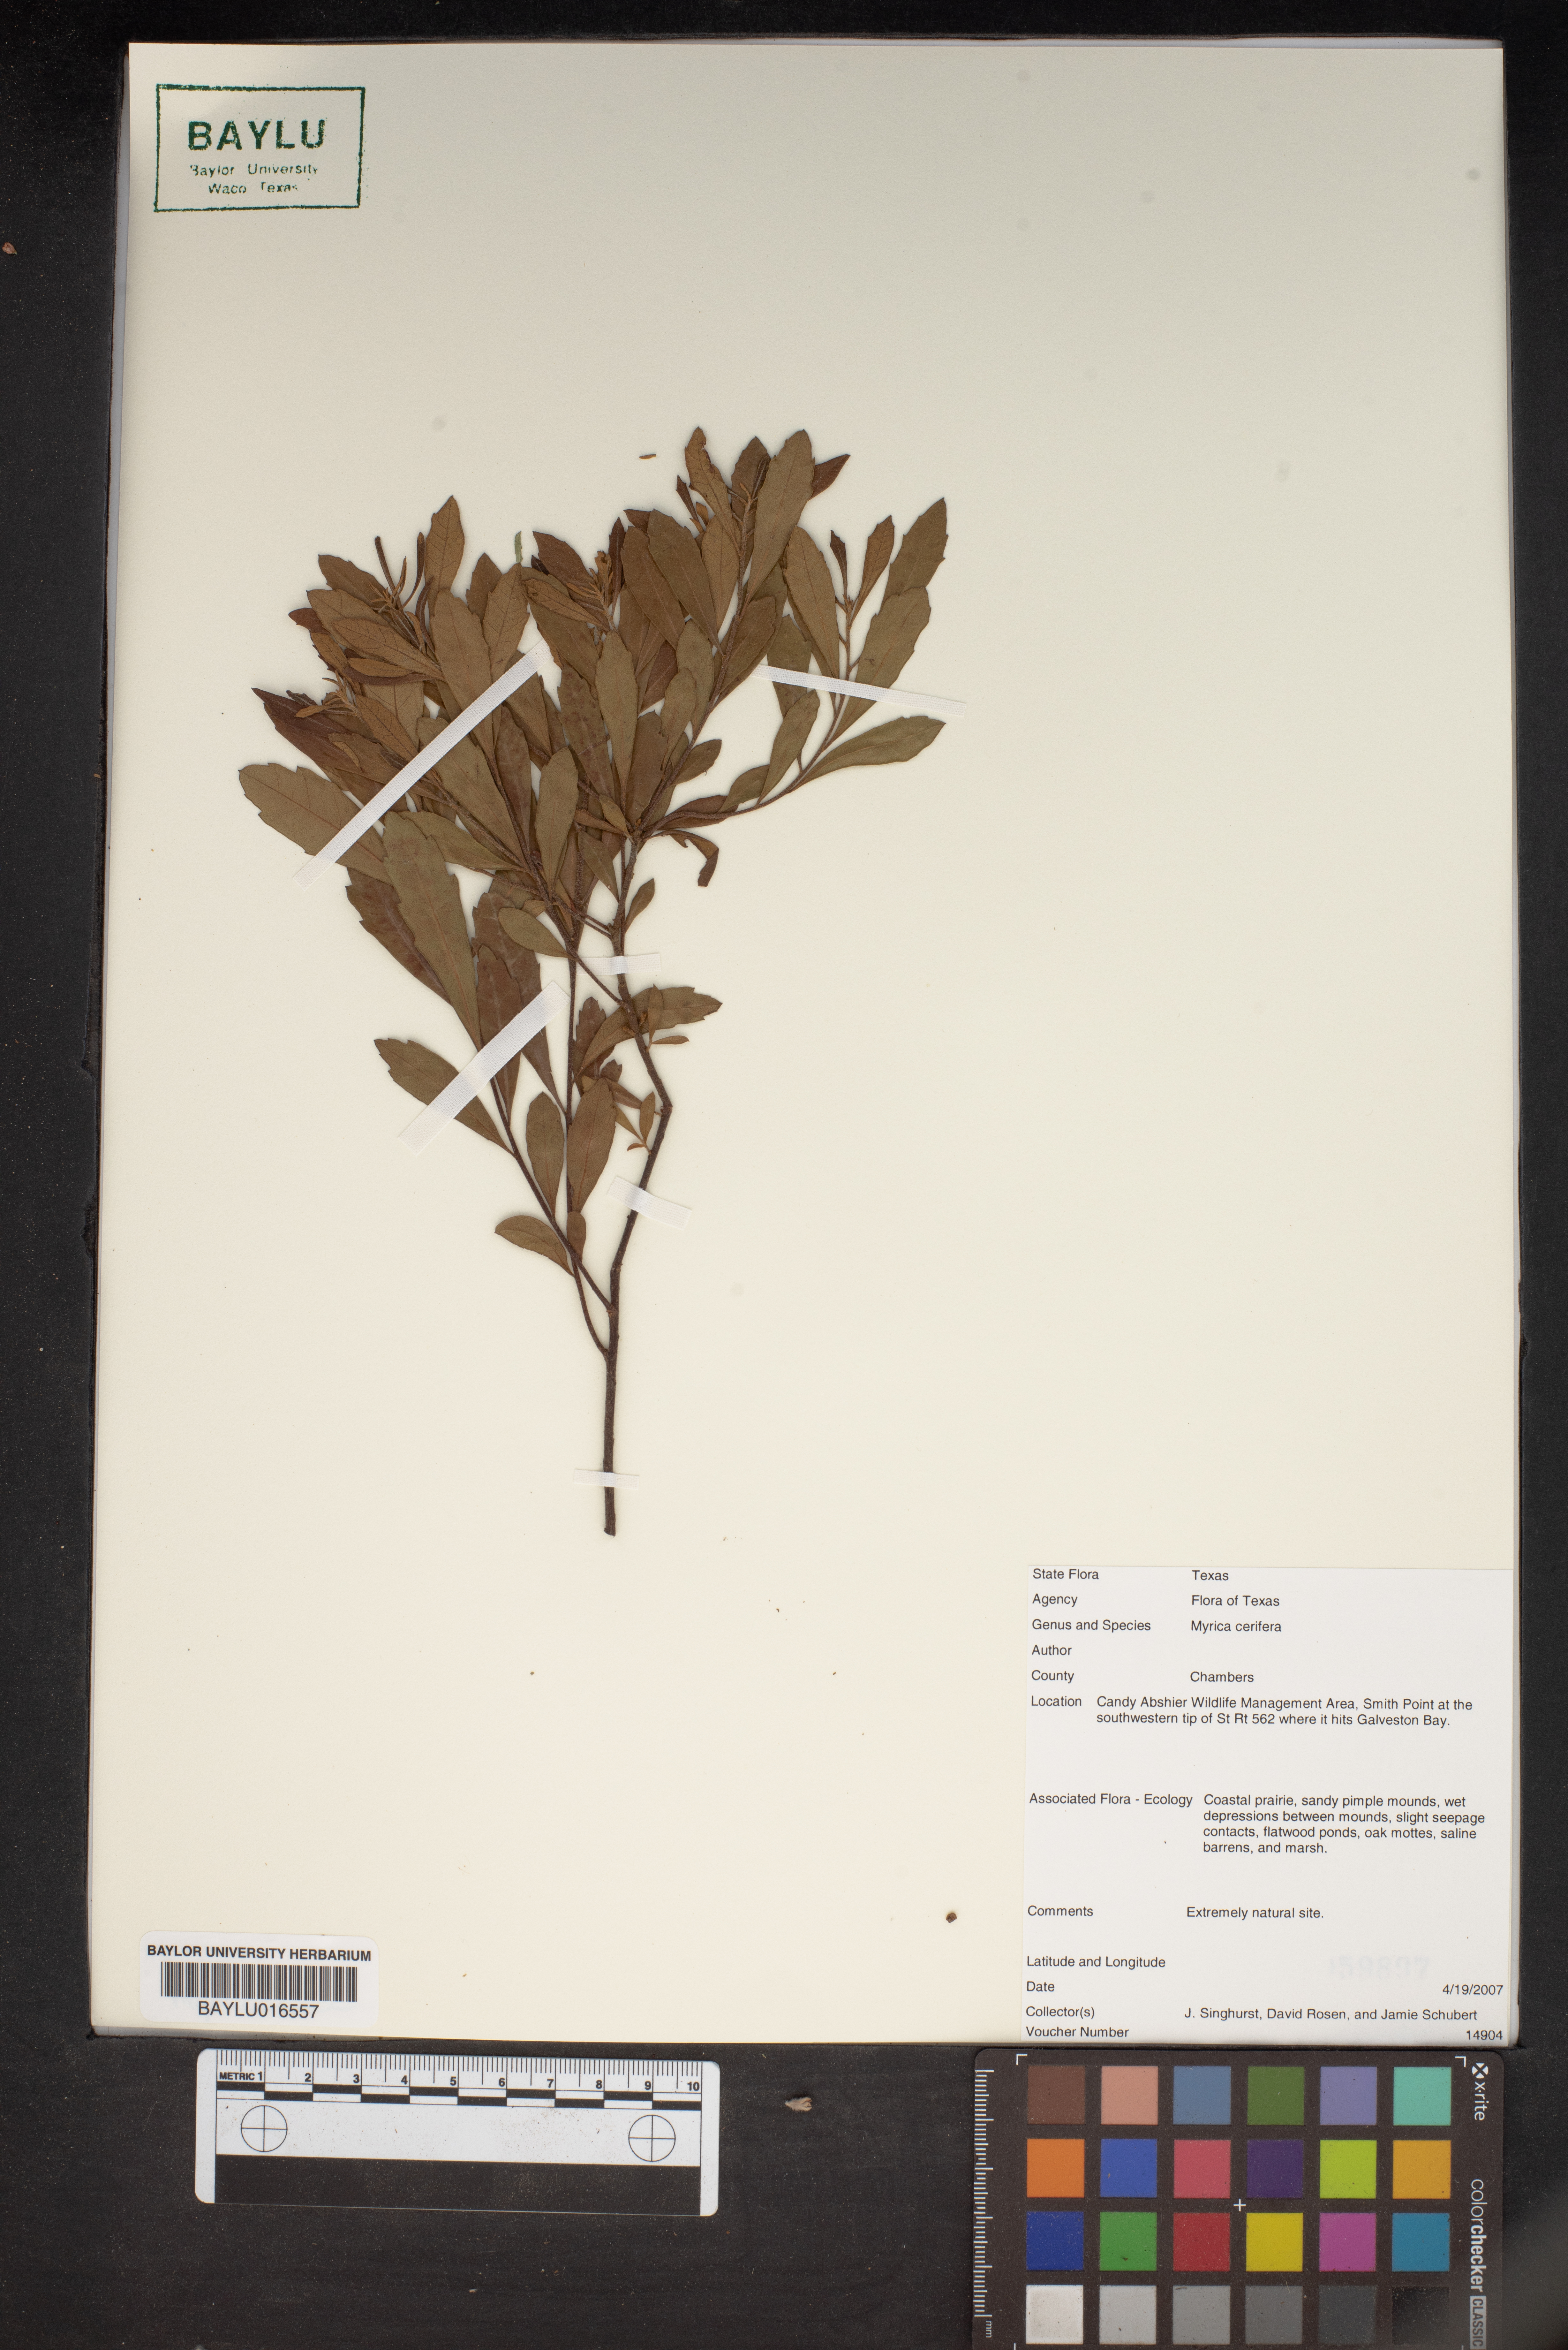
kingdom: Plantae
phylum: Tracheophyta
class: Magnoliopsida
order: Fagales
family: Myricaceae
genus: Morella
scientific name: Morella cerifera
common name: Wax myrtle
